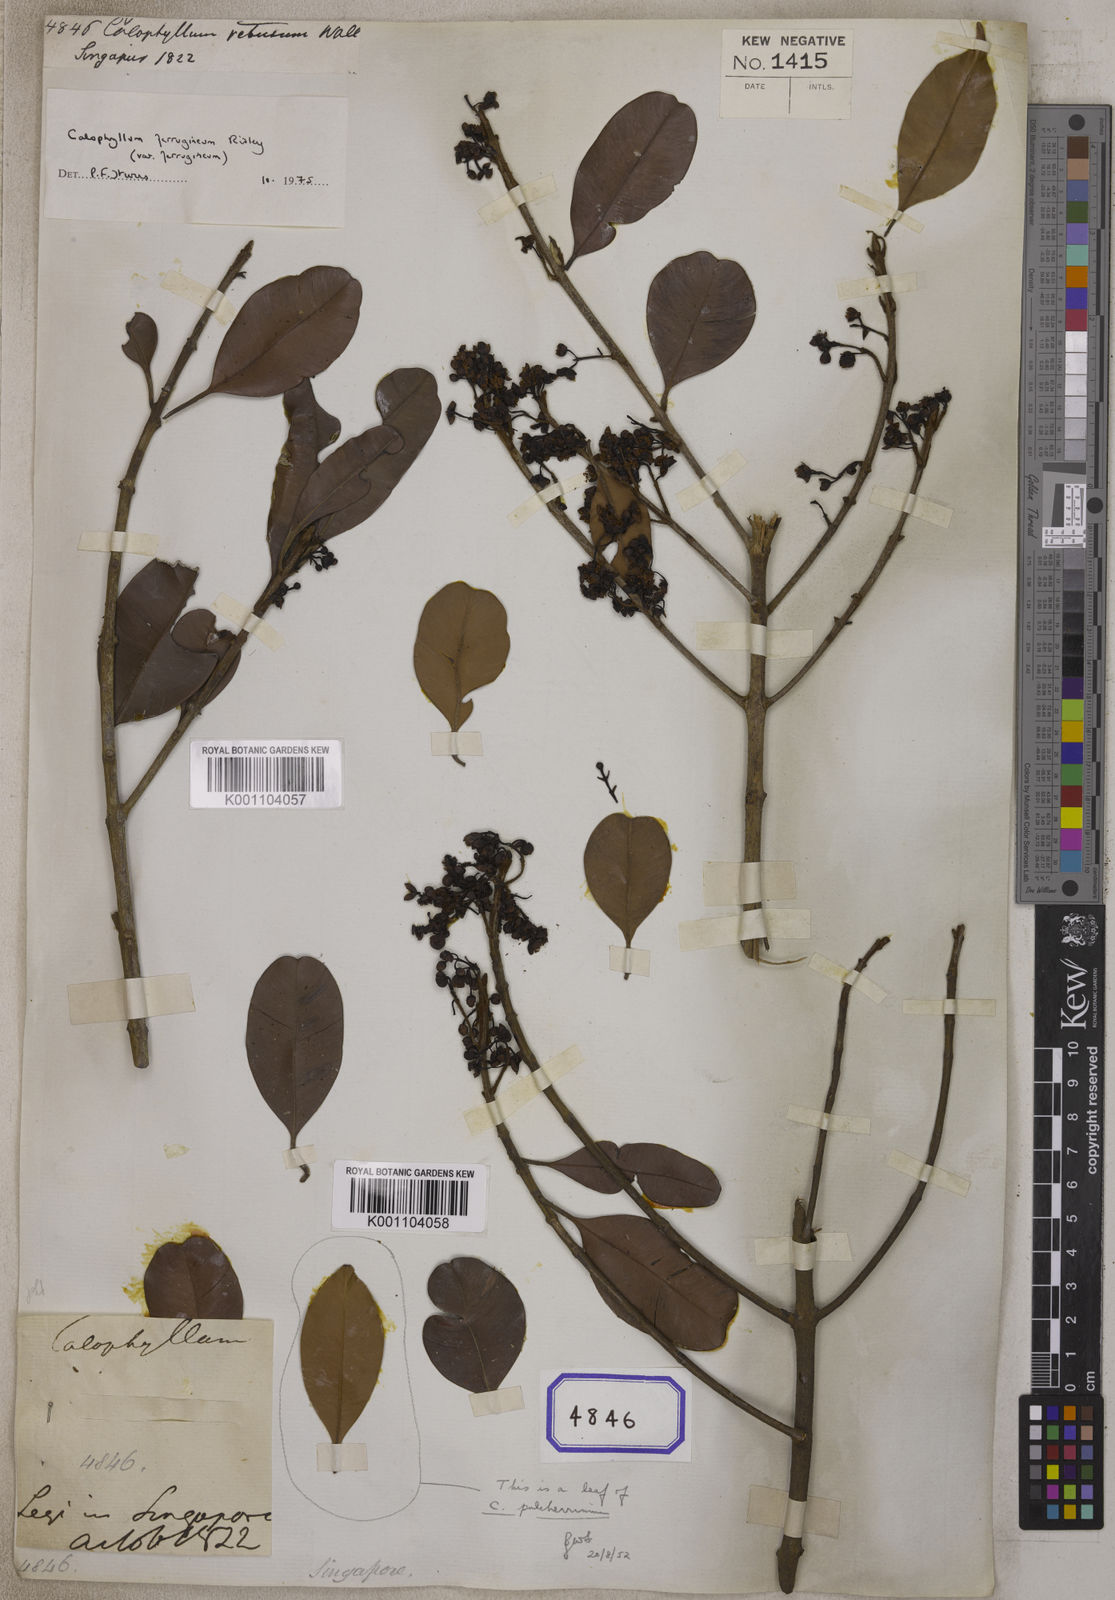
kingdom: Plantae
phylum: Tracheophyta
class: Magnoliopsida
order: Malpighiales
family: Calophyllaceae
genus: Calophyllum
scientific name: Calophyllum
